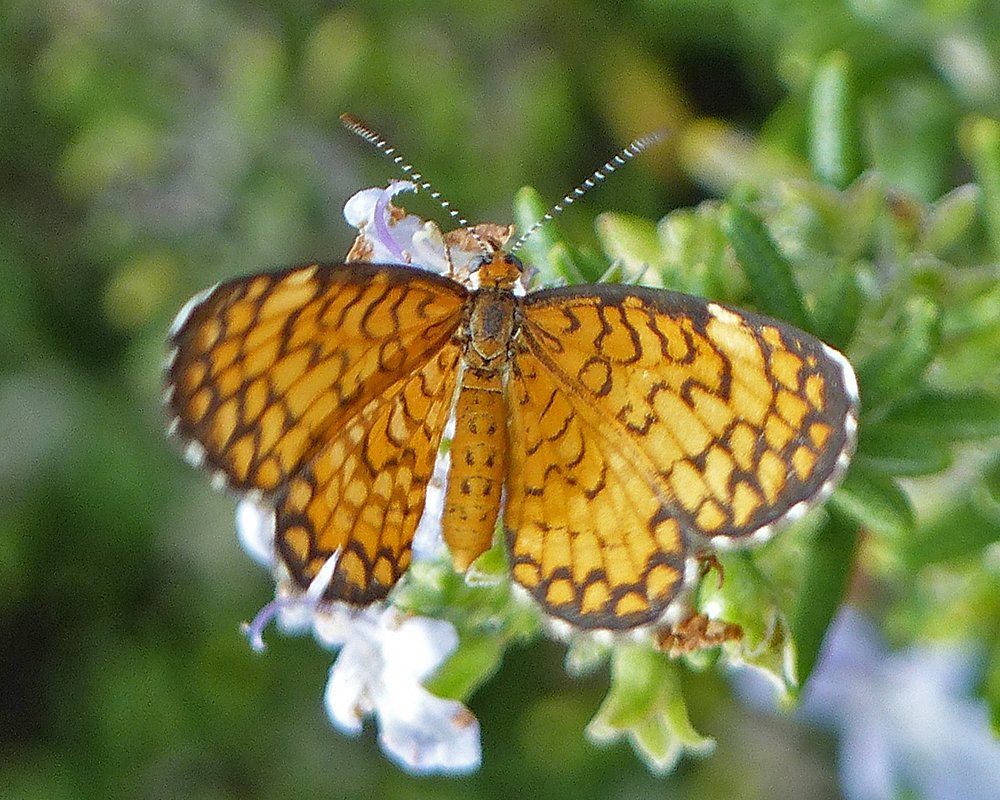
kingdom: Animalia
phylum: Arthropoda
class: Insecta
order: Lepidoptera
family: Nymphalidae
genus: Dymasia
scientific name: Dymasia dymas
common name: Tiny Checkerspot
